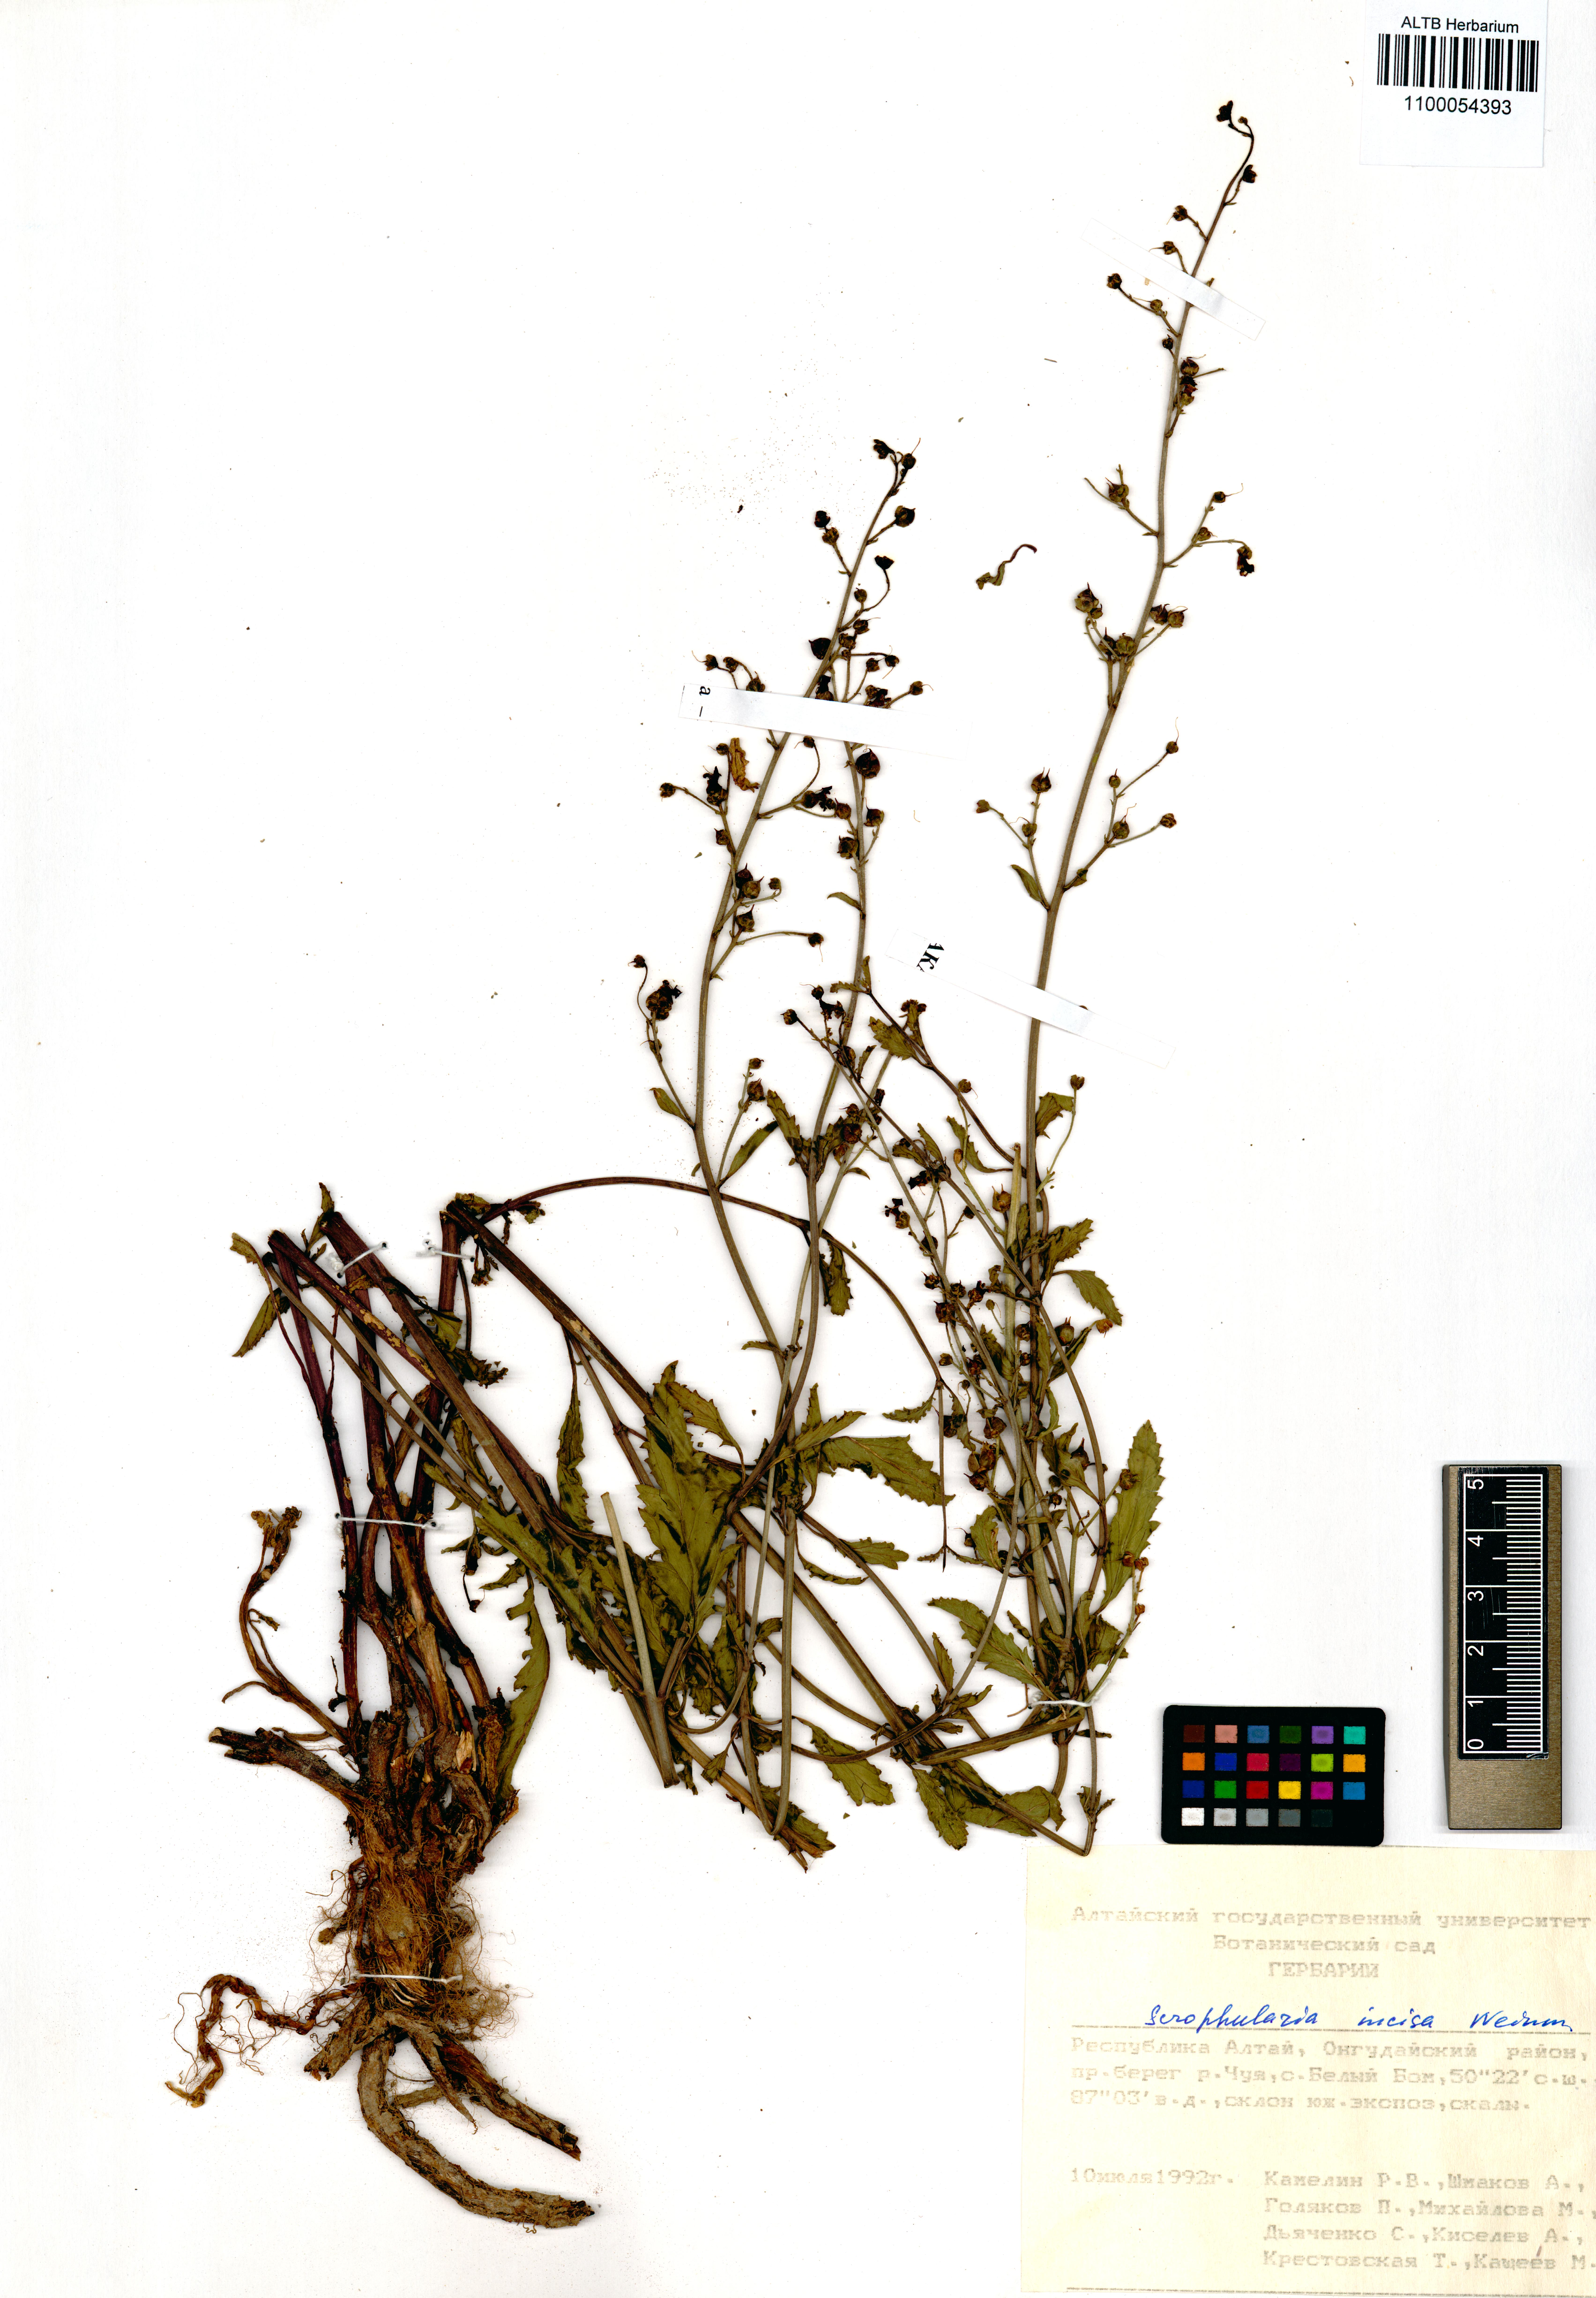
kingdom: Plantae
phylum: Tracheophyta
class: Magnoliopsida
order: Lamiales
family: Scrophulariaceae
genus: Scrophularia
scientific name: Scrophularia incisa
